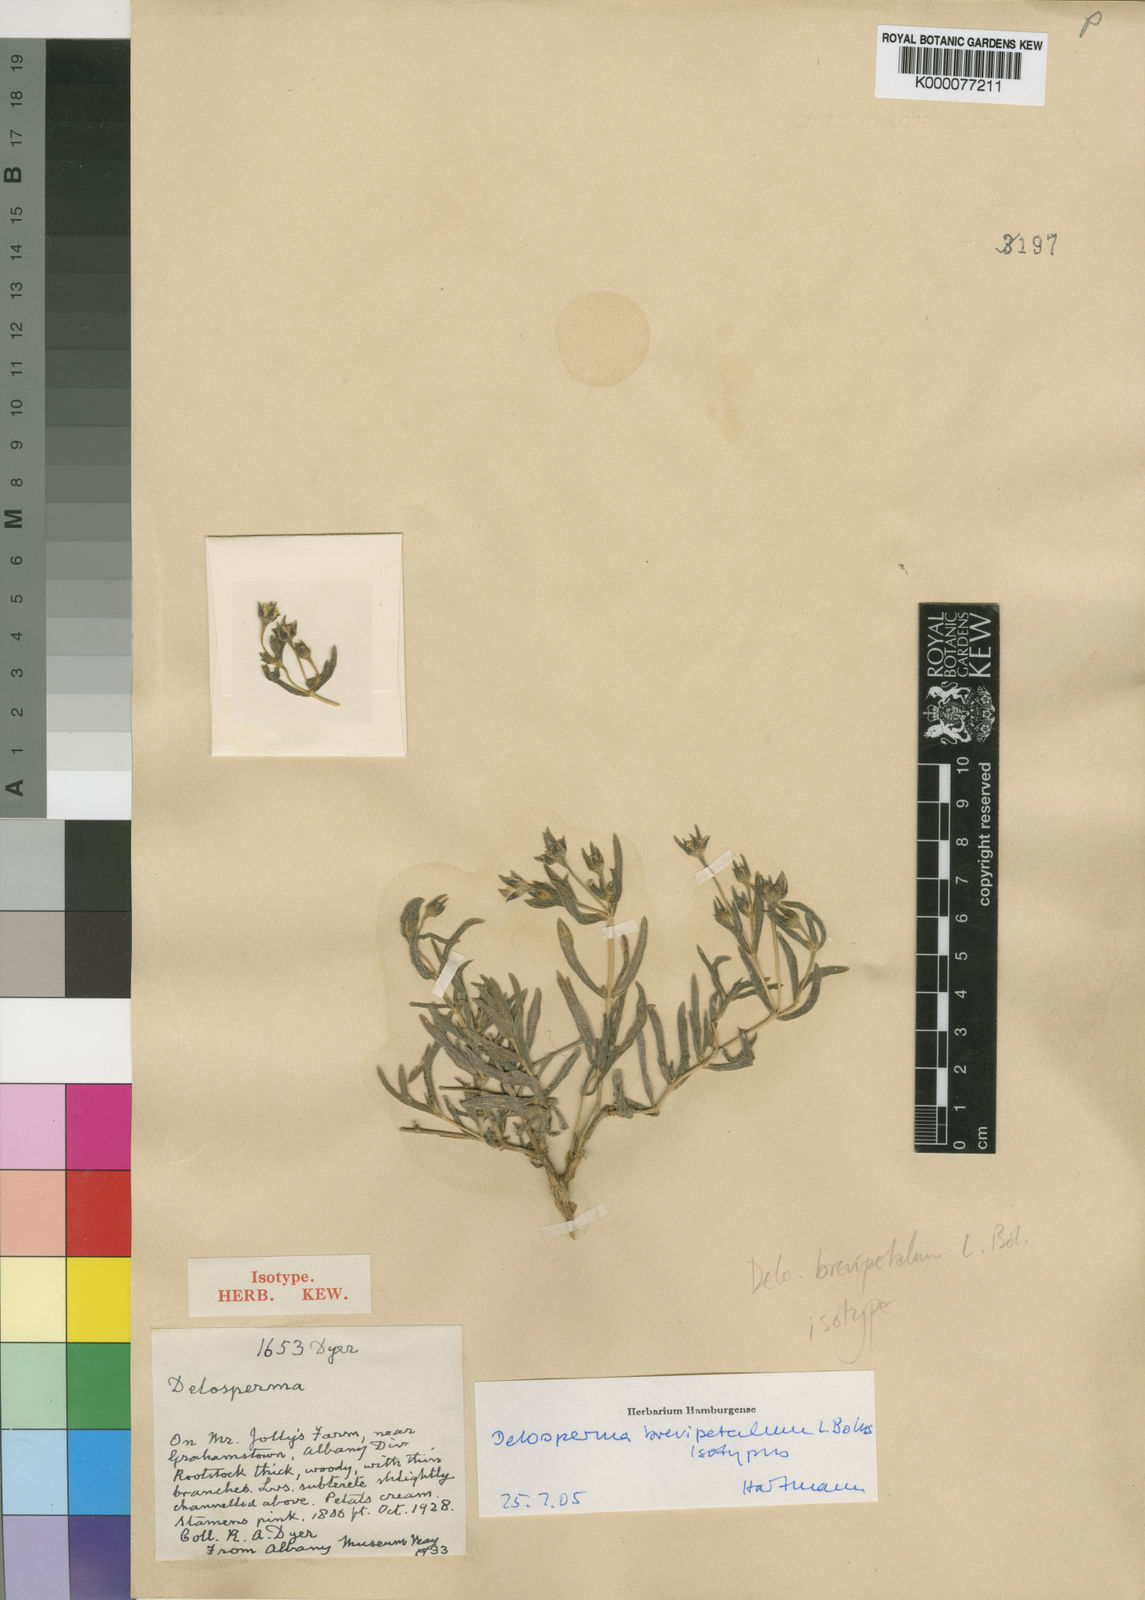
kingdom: Plantae
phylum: Tracheophyta
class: Magnoliopsida
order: Caryophyllales
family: Aizoaceae
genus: Delosperma
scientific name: Delosperma brevipetalum
